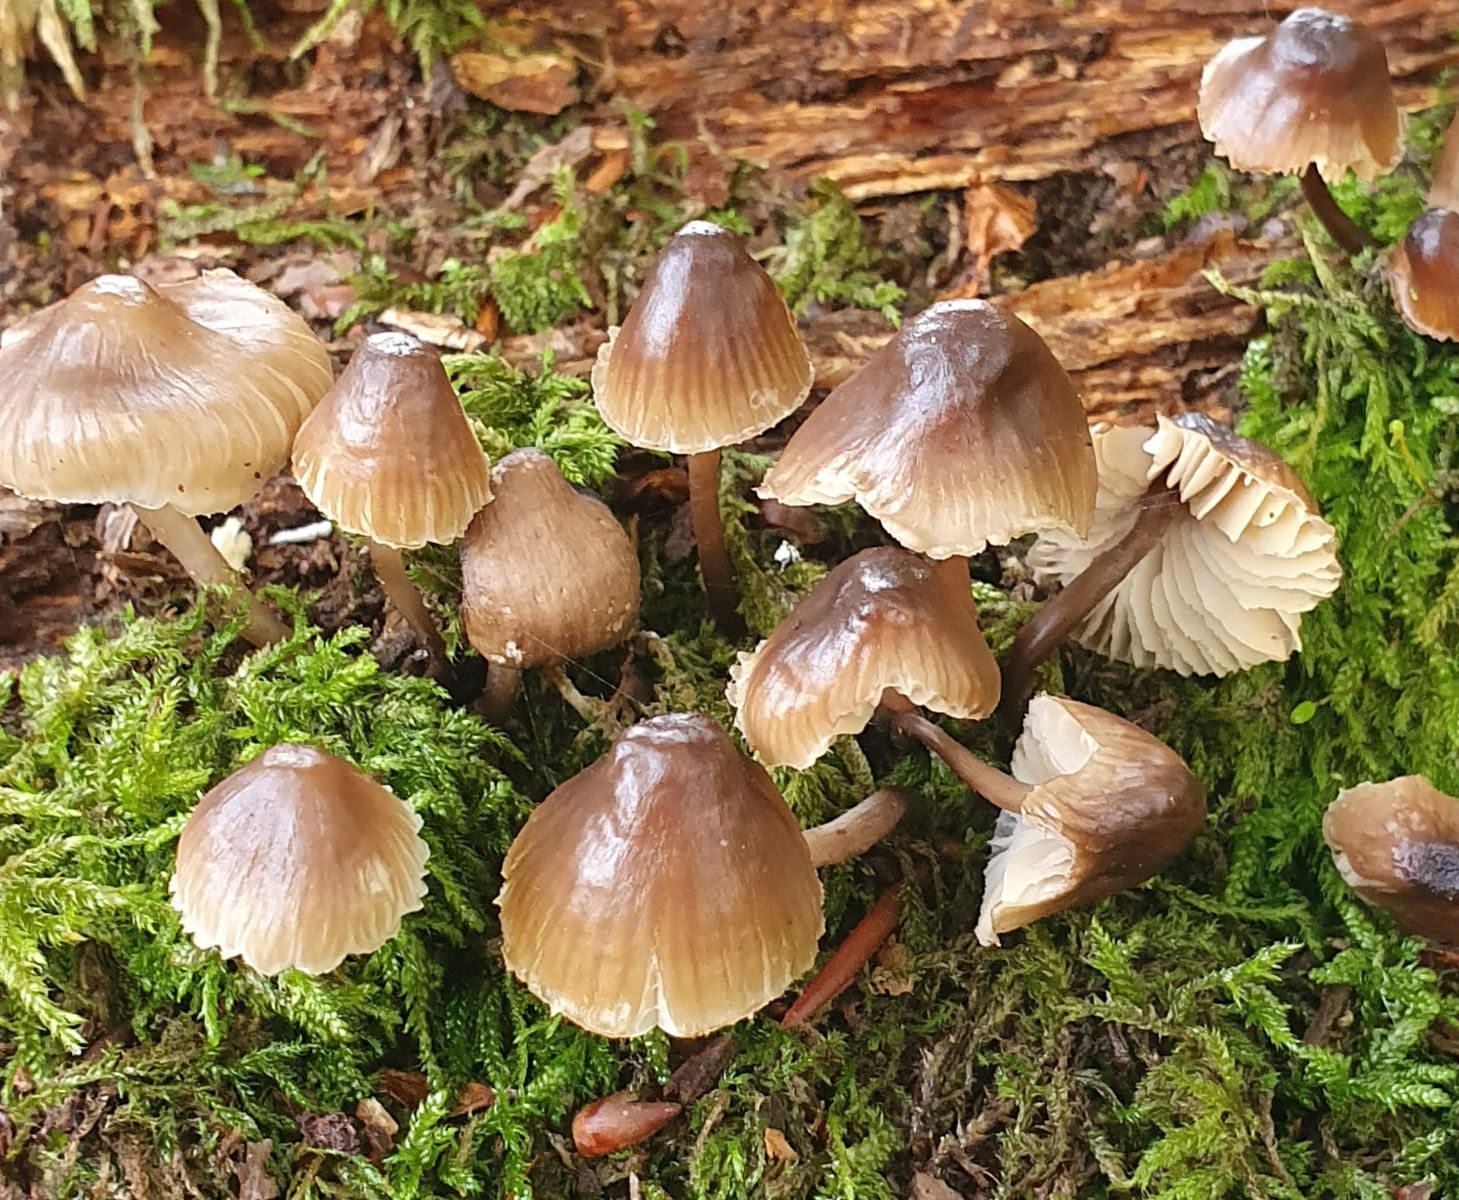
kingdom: Fungi
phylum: Basidiomycota
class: Agaricomycetes
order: Agaricales
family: Mycenaceae
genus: Mycena
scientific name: Mycena
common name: huesvamp
